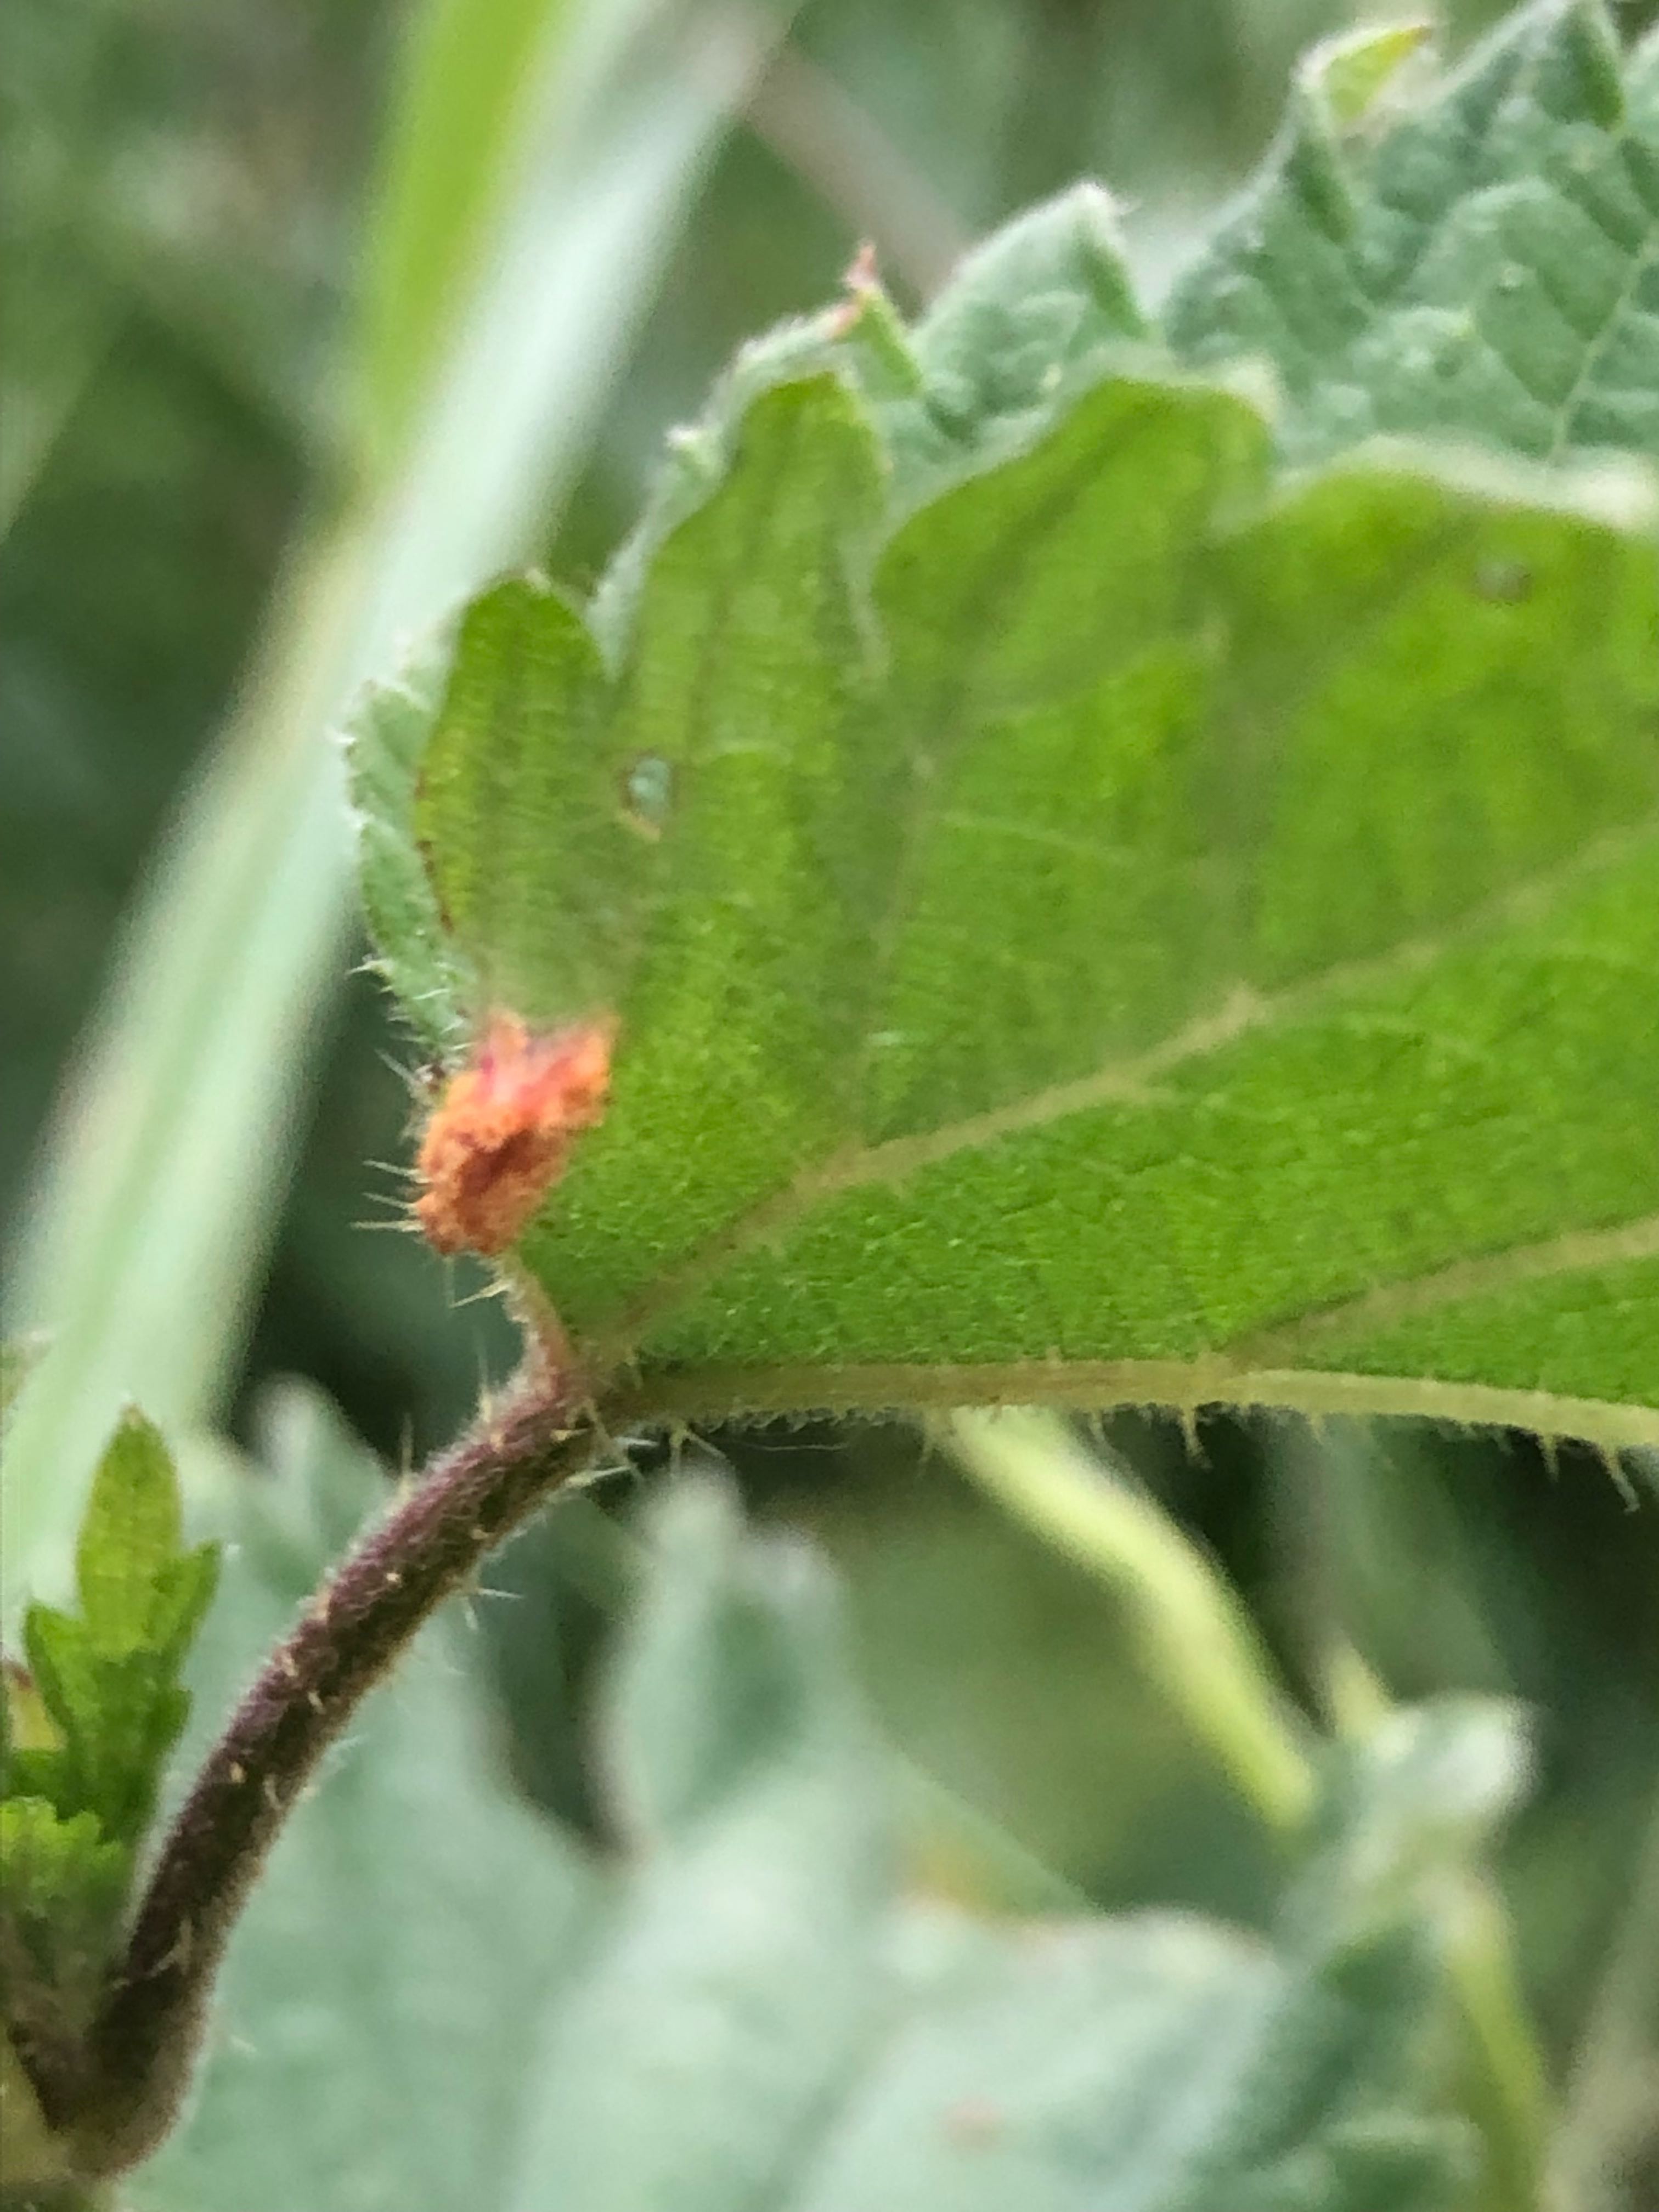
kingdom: Fungi
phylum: Basidiomycota
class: Pucciniomycetes
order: Pucciniales
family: Pucciniaceae
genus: Puccinia
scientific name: Puccinia urticata
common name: nældegalle-tvecellerust
